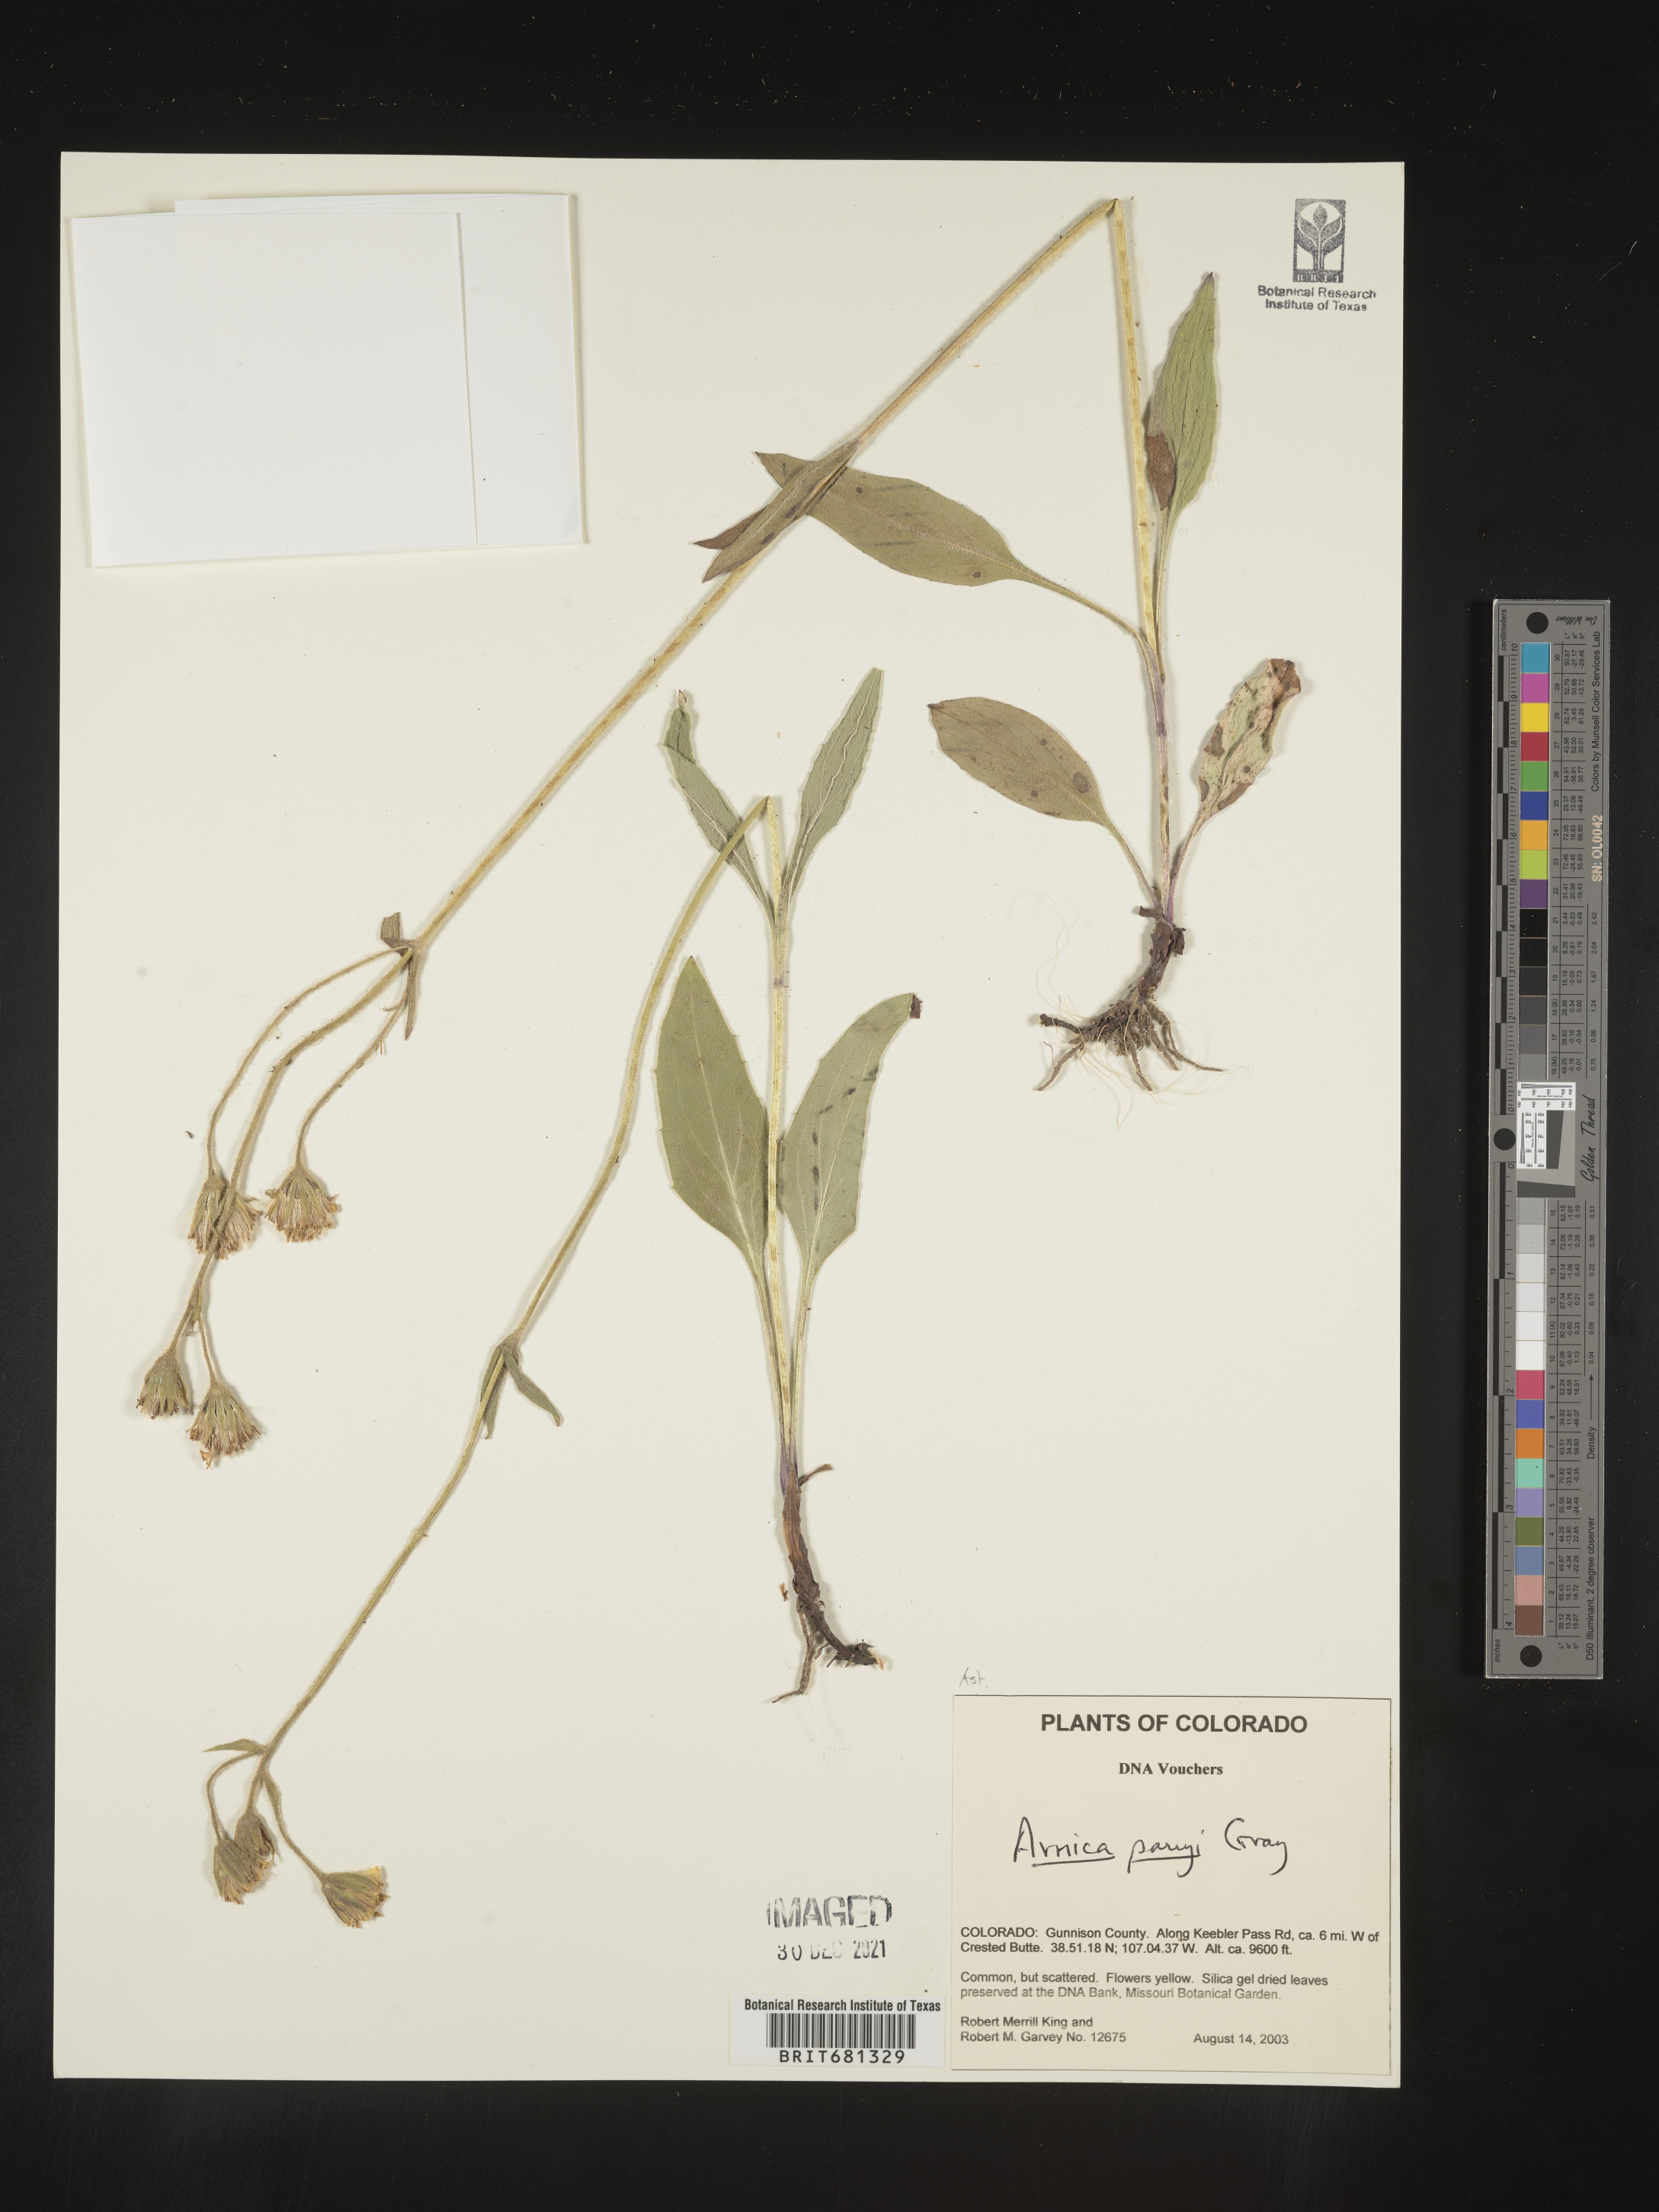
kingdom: Plantae
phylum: Tracheophyta
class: Magnoliopsida
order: Asterales
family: Asteraceae
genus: Arnica
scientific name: Arnica parryi
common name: Parry's arnica
